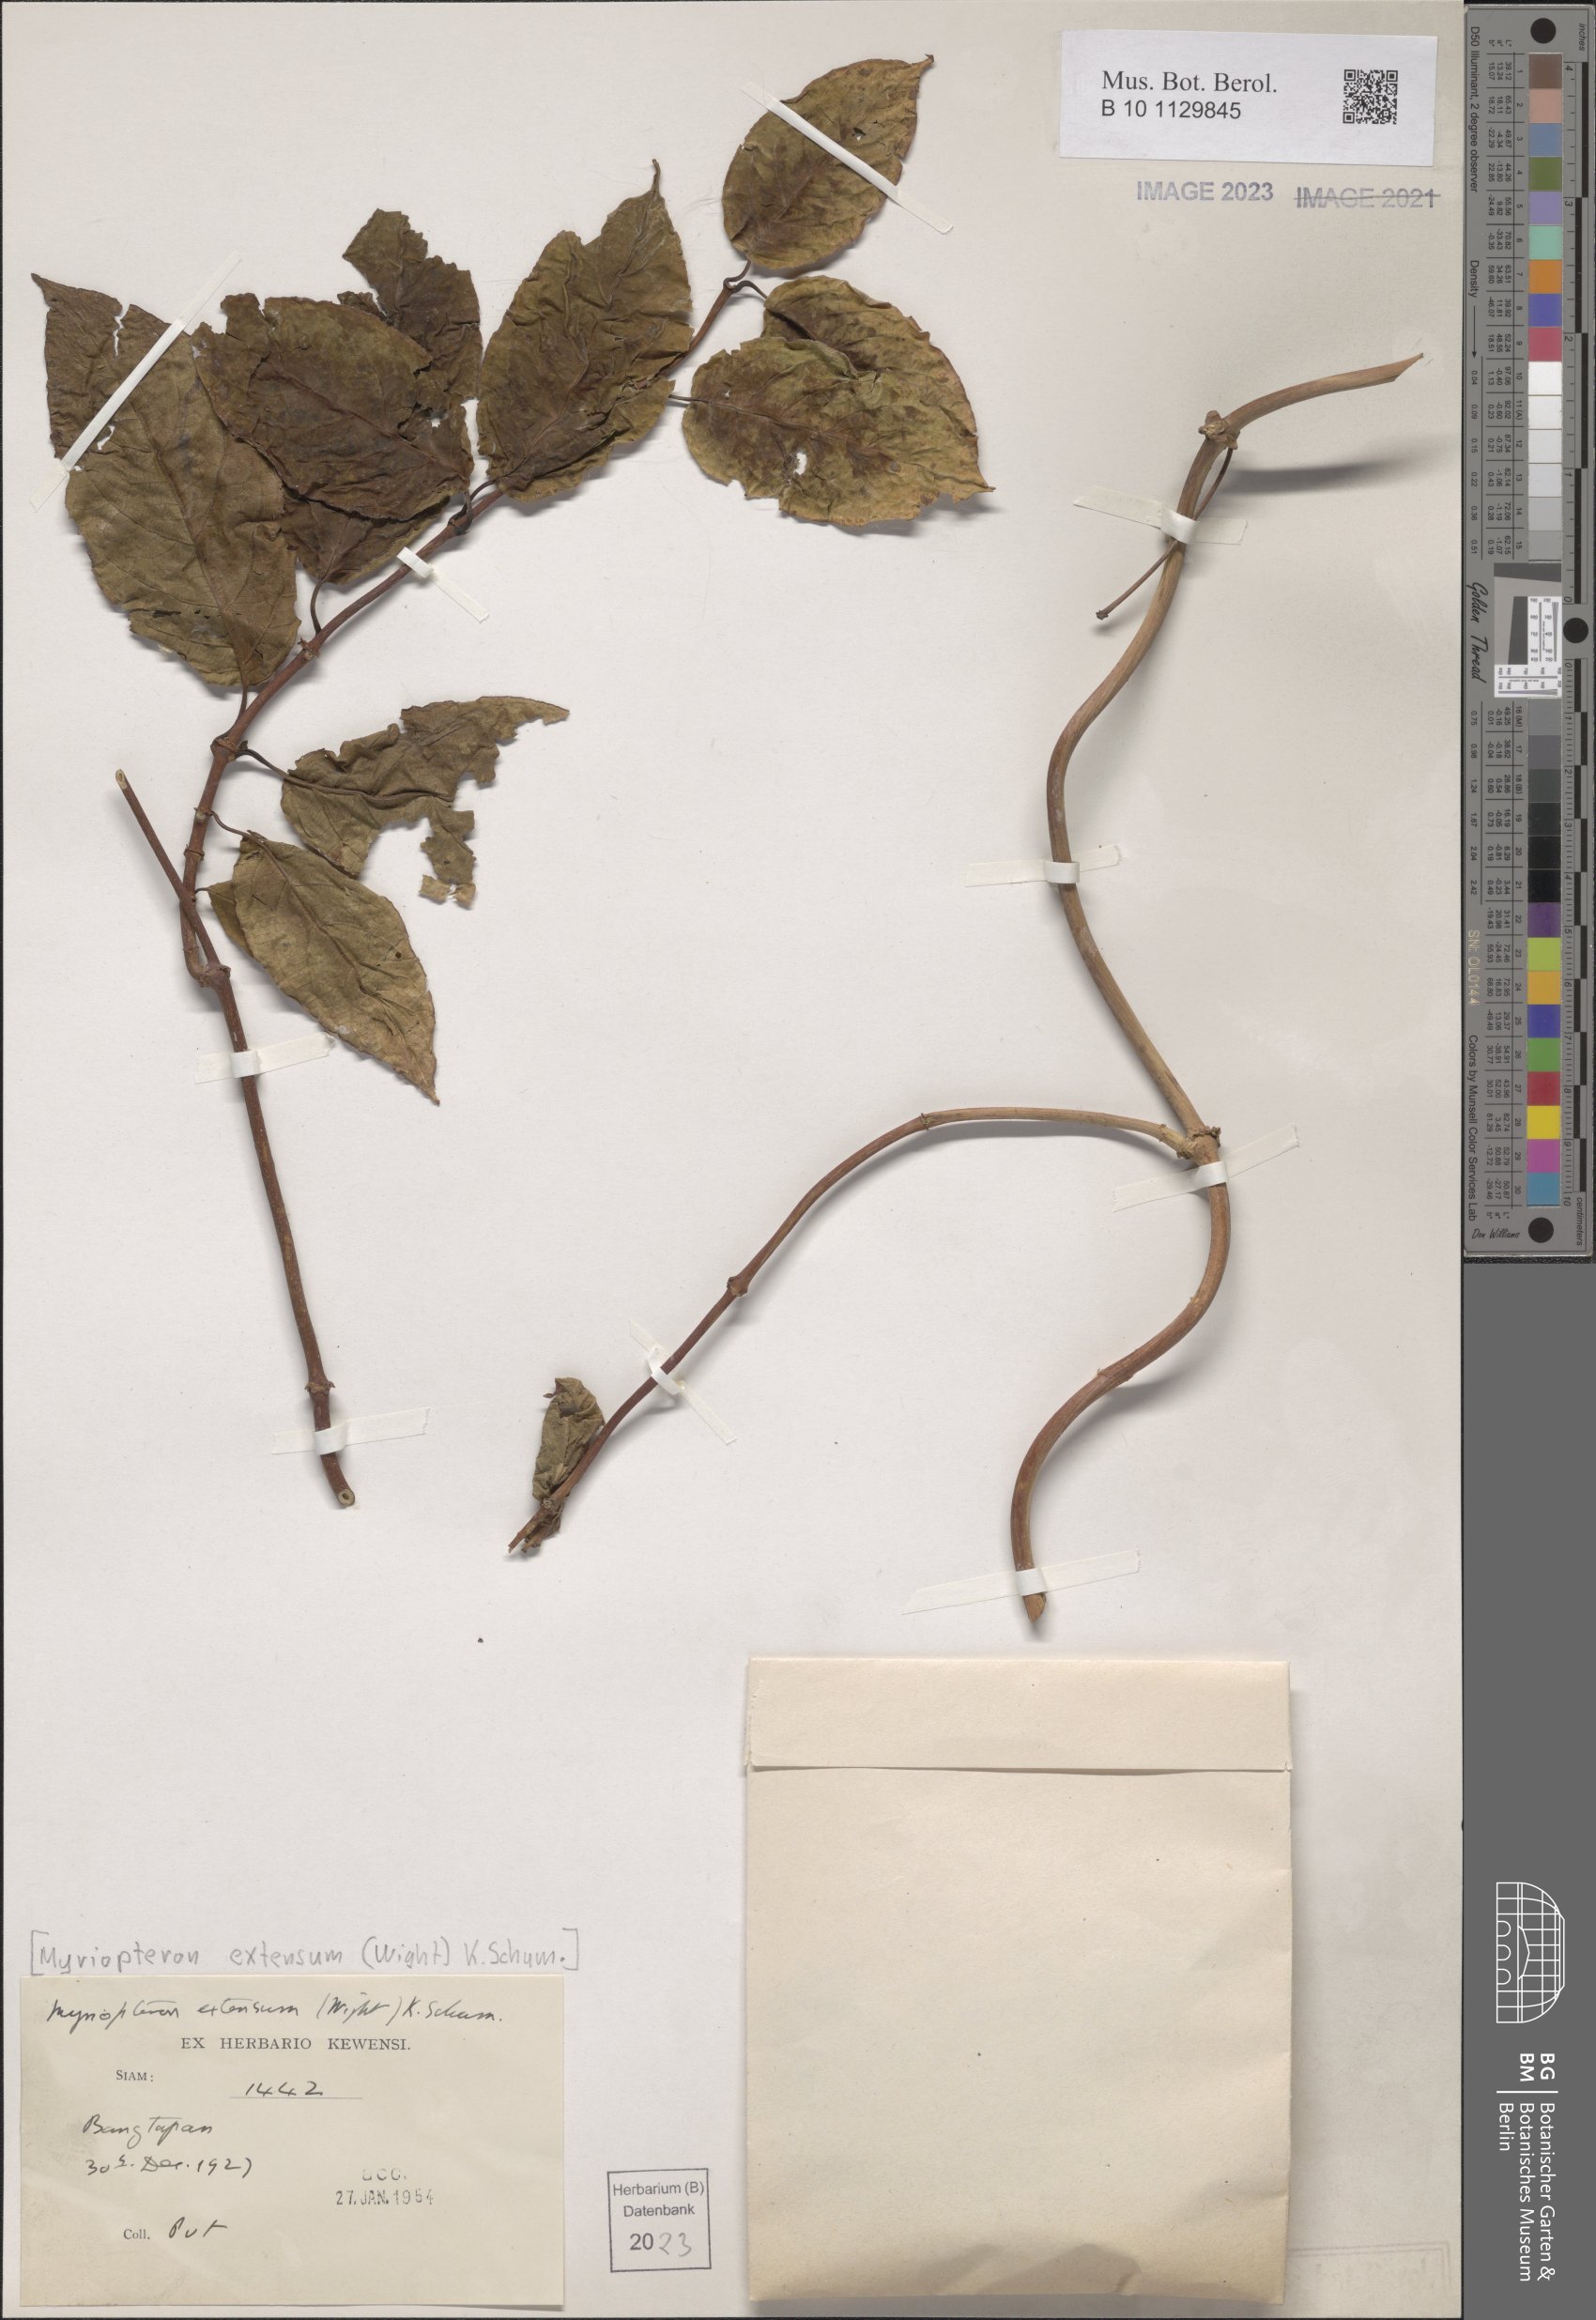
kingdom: Plantae
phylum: Tracheophyta
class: Magnoliopsida
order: Gentianales
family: Apocynaceae
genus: Myriopteron
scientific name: Myriopteron extensum
